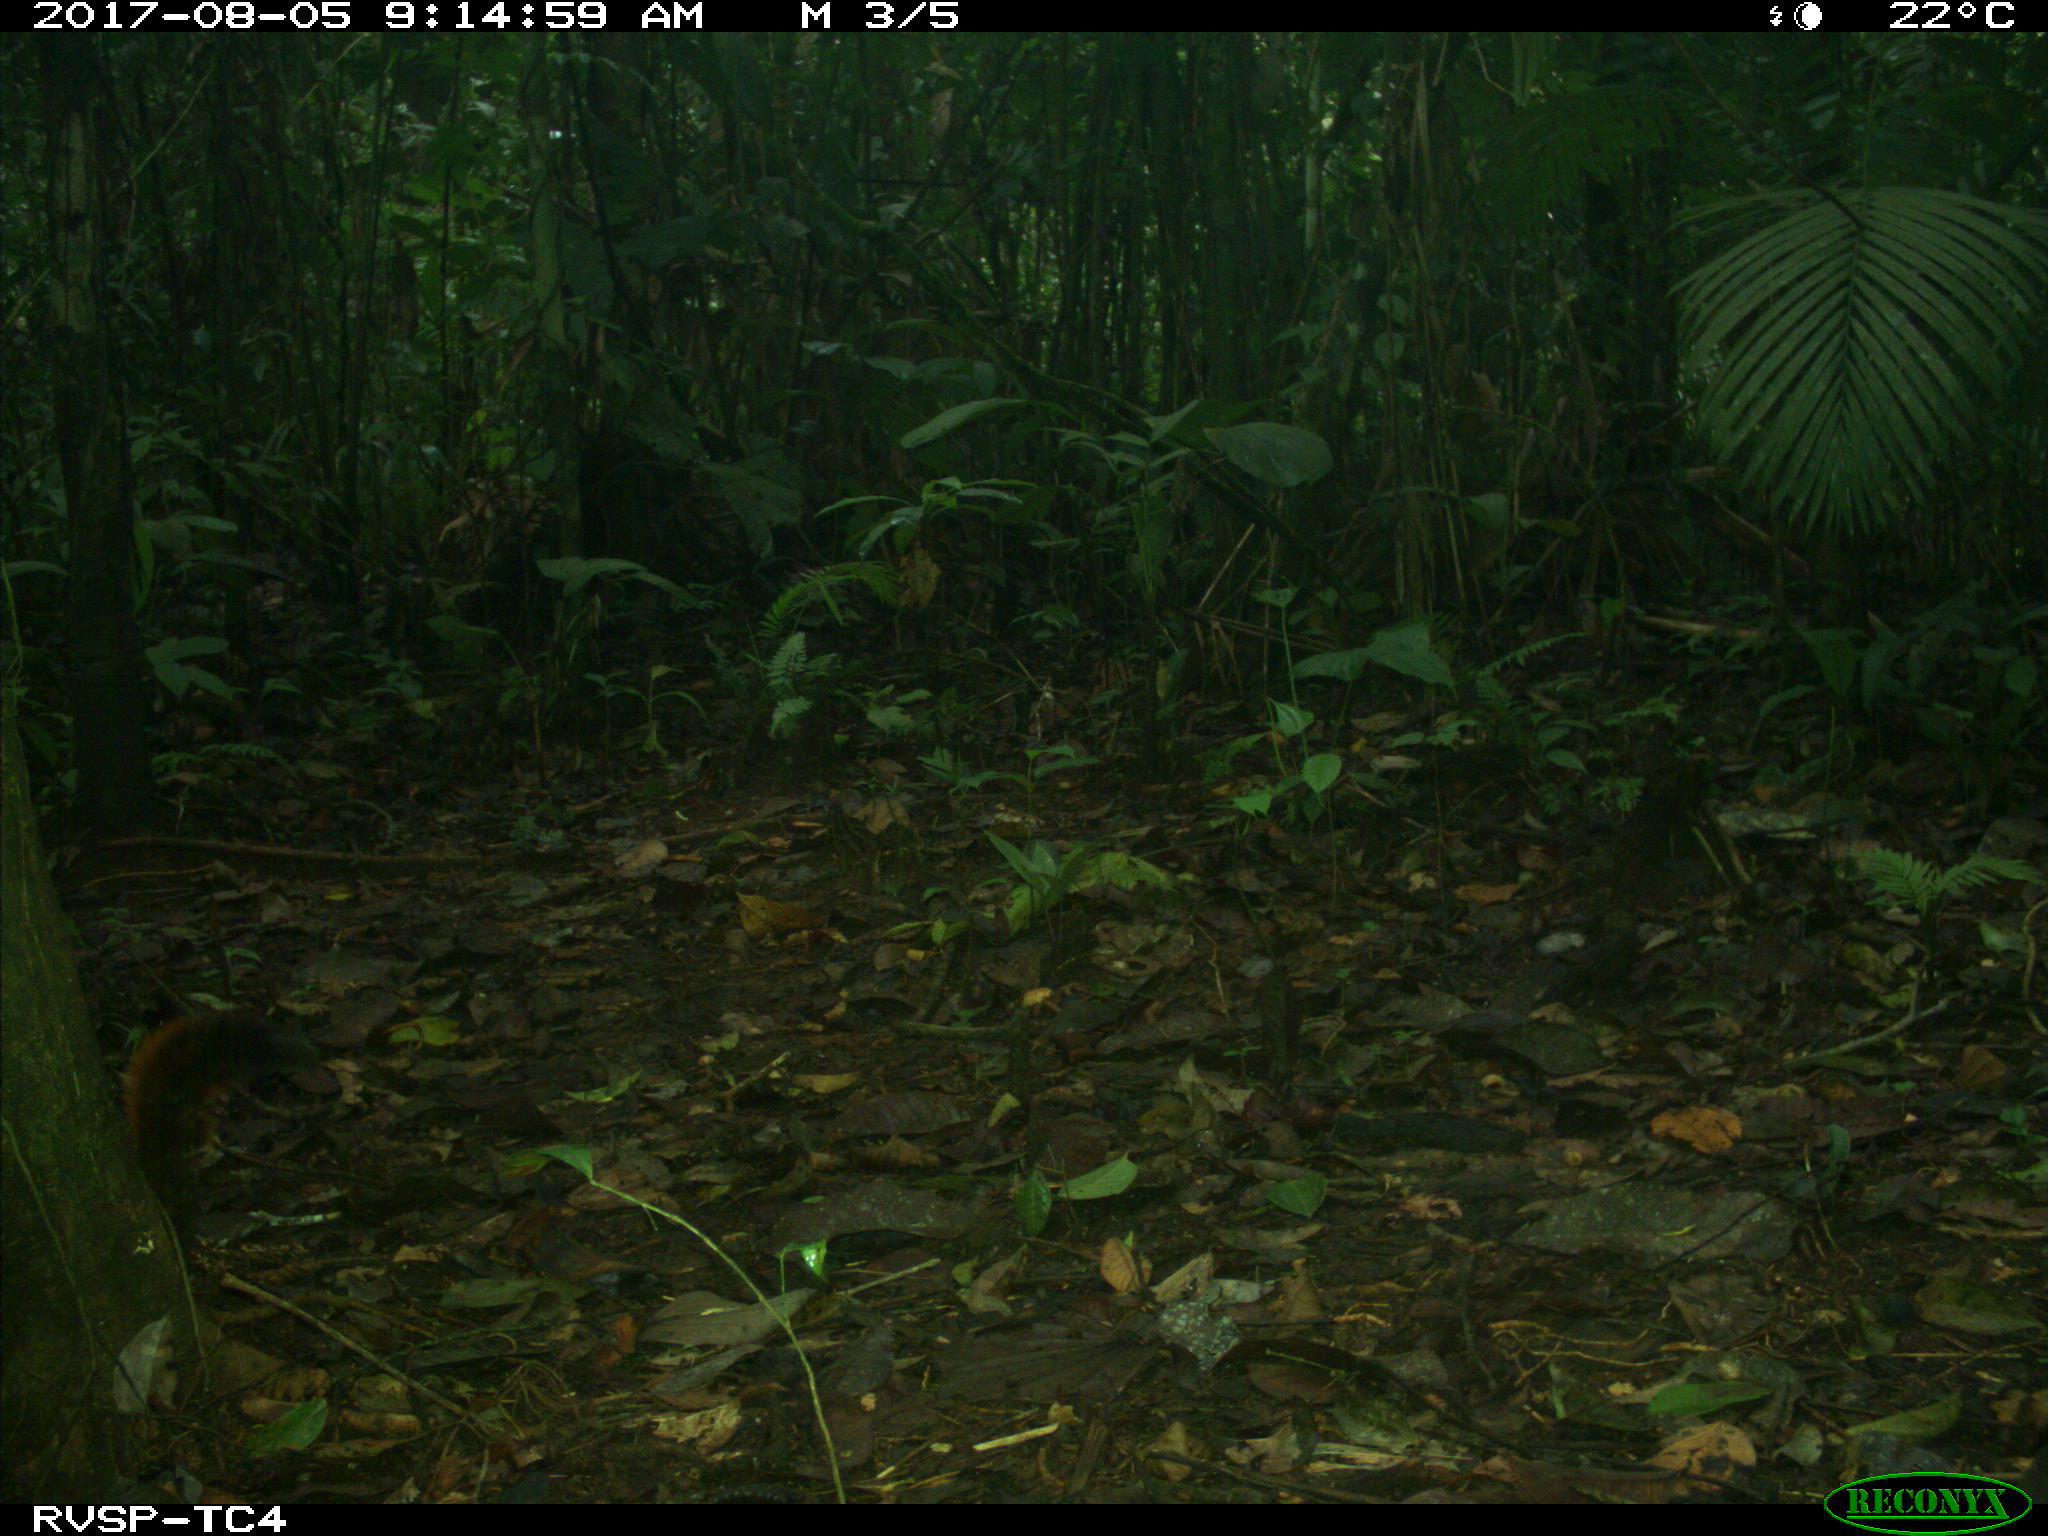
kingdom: Animalia
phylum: Chordata
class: Mammalia
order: Rodentia
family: Sciuridae
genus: Sciurus
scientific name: Sciurus granatensis
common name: Red-tailed squirrel
